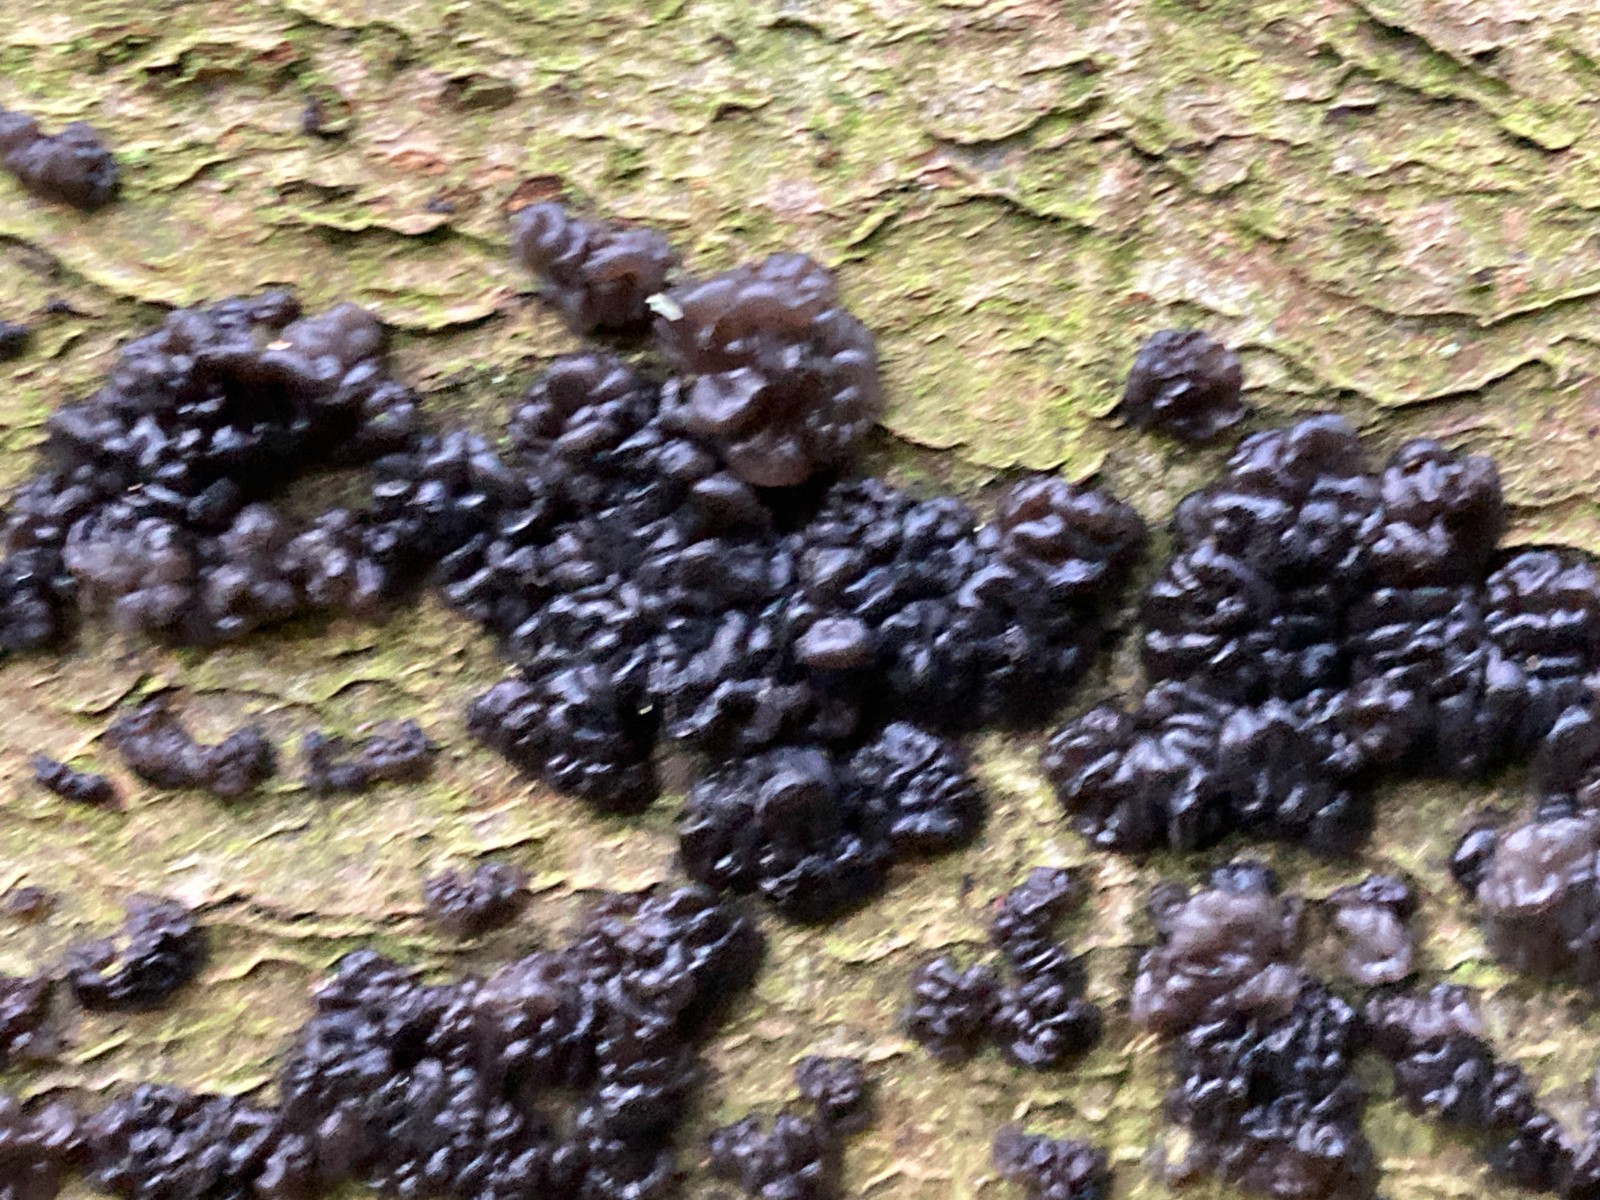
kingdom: Fungi
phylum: Basidiomycota
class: Agaricomycetes
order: Auriculariales
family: Auriculariaceae
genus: Exidia
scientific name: Exidia nigricans
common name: almindelig bævretop
